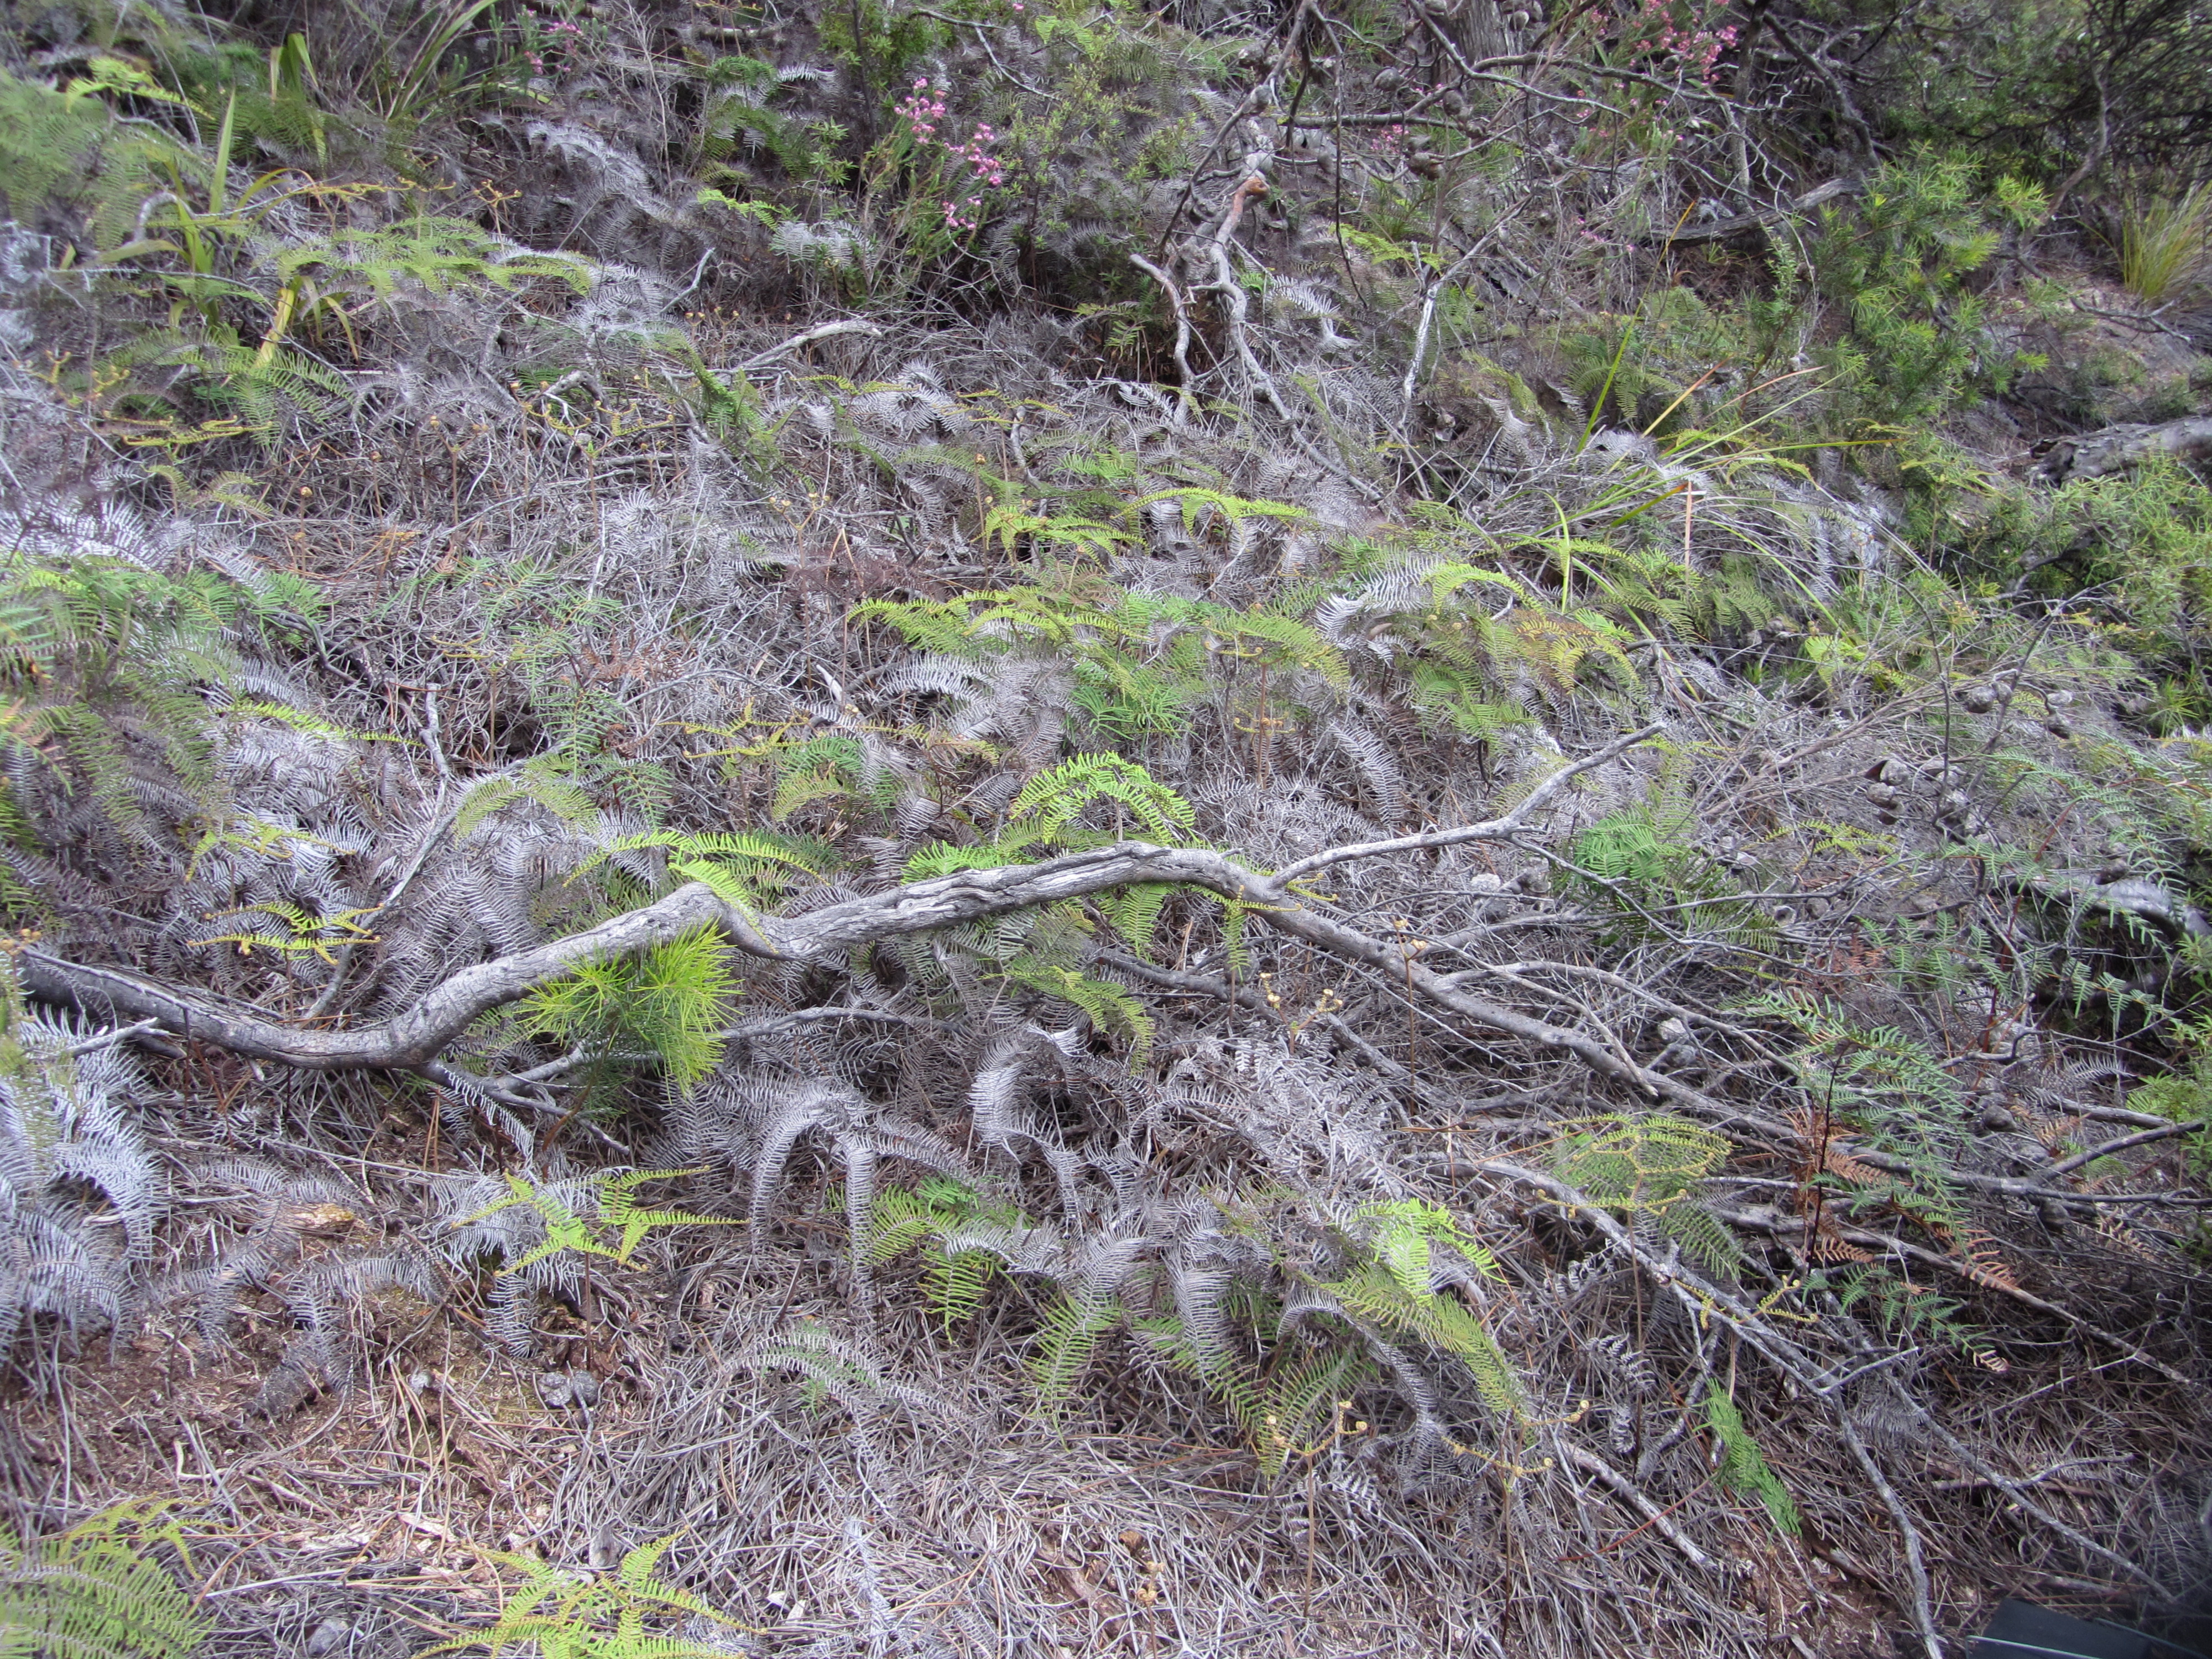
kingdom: Plantae
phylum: Tracheophyta
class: Polypodiopsida
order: Gleicheniales
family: Gleicheniaceae
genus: Gleichenia
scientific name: Gleichenia dicarpa
